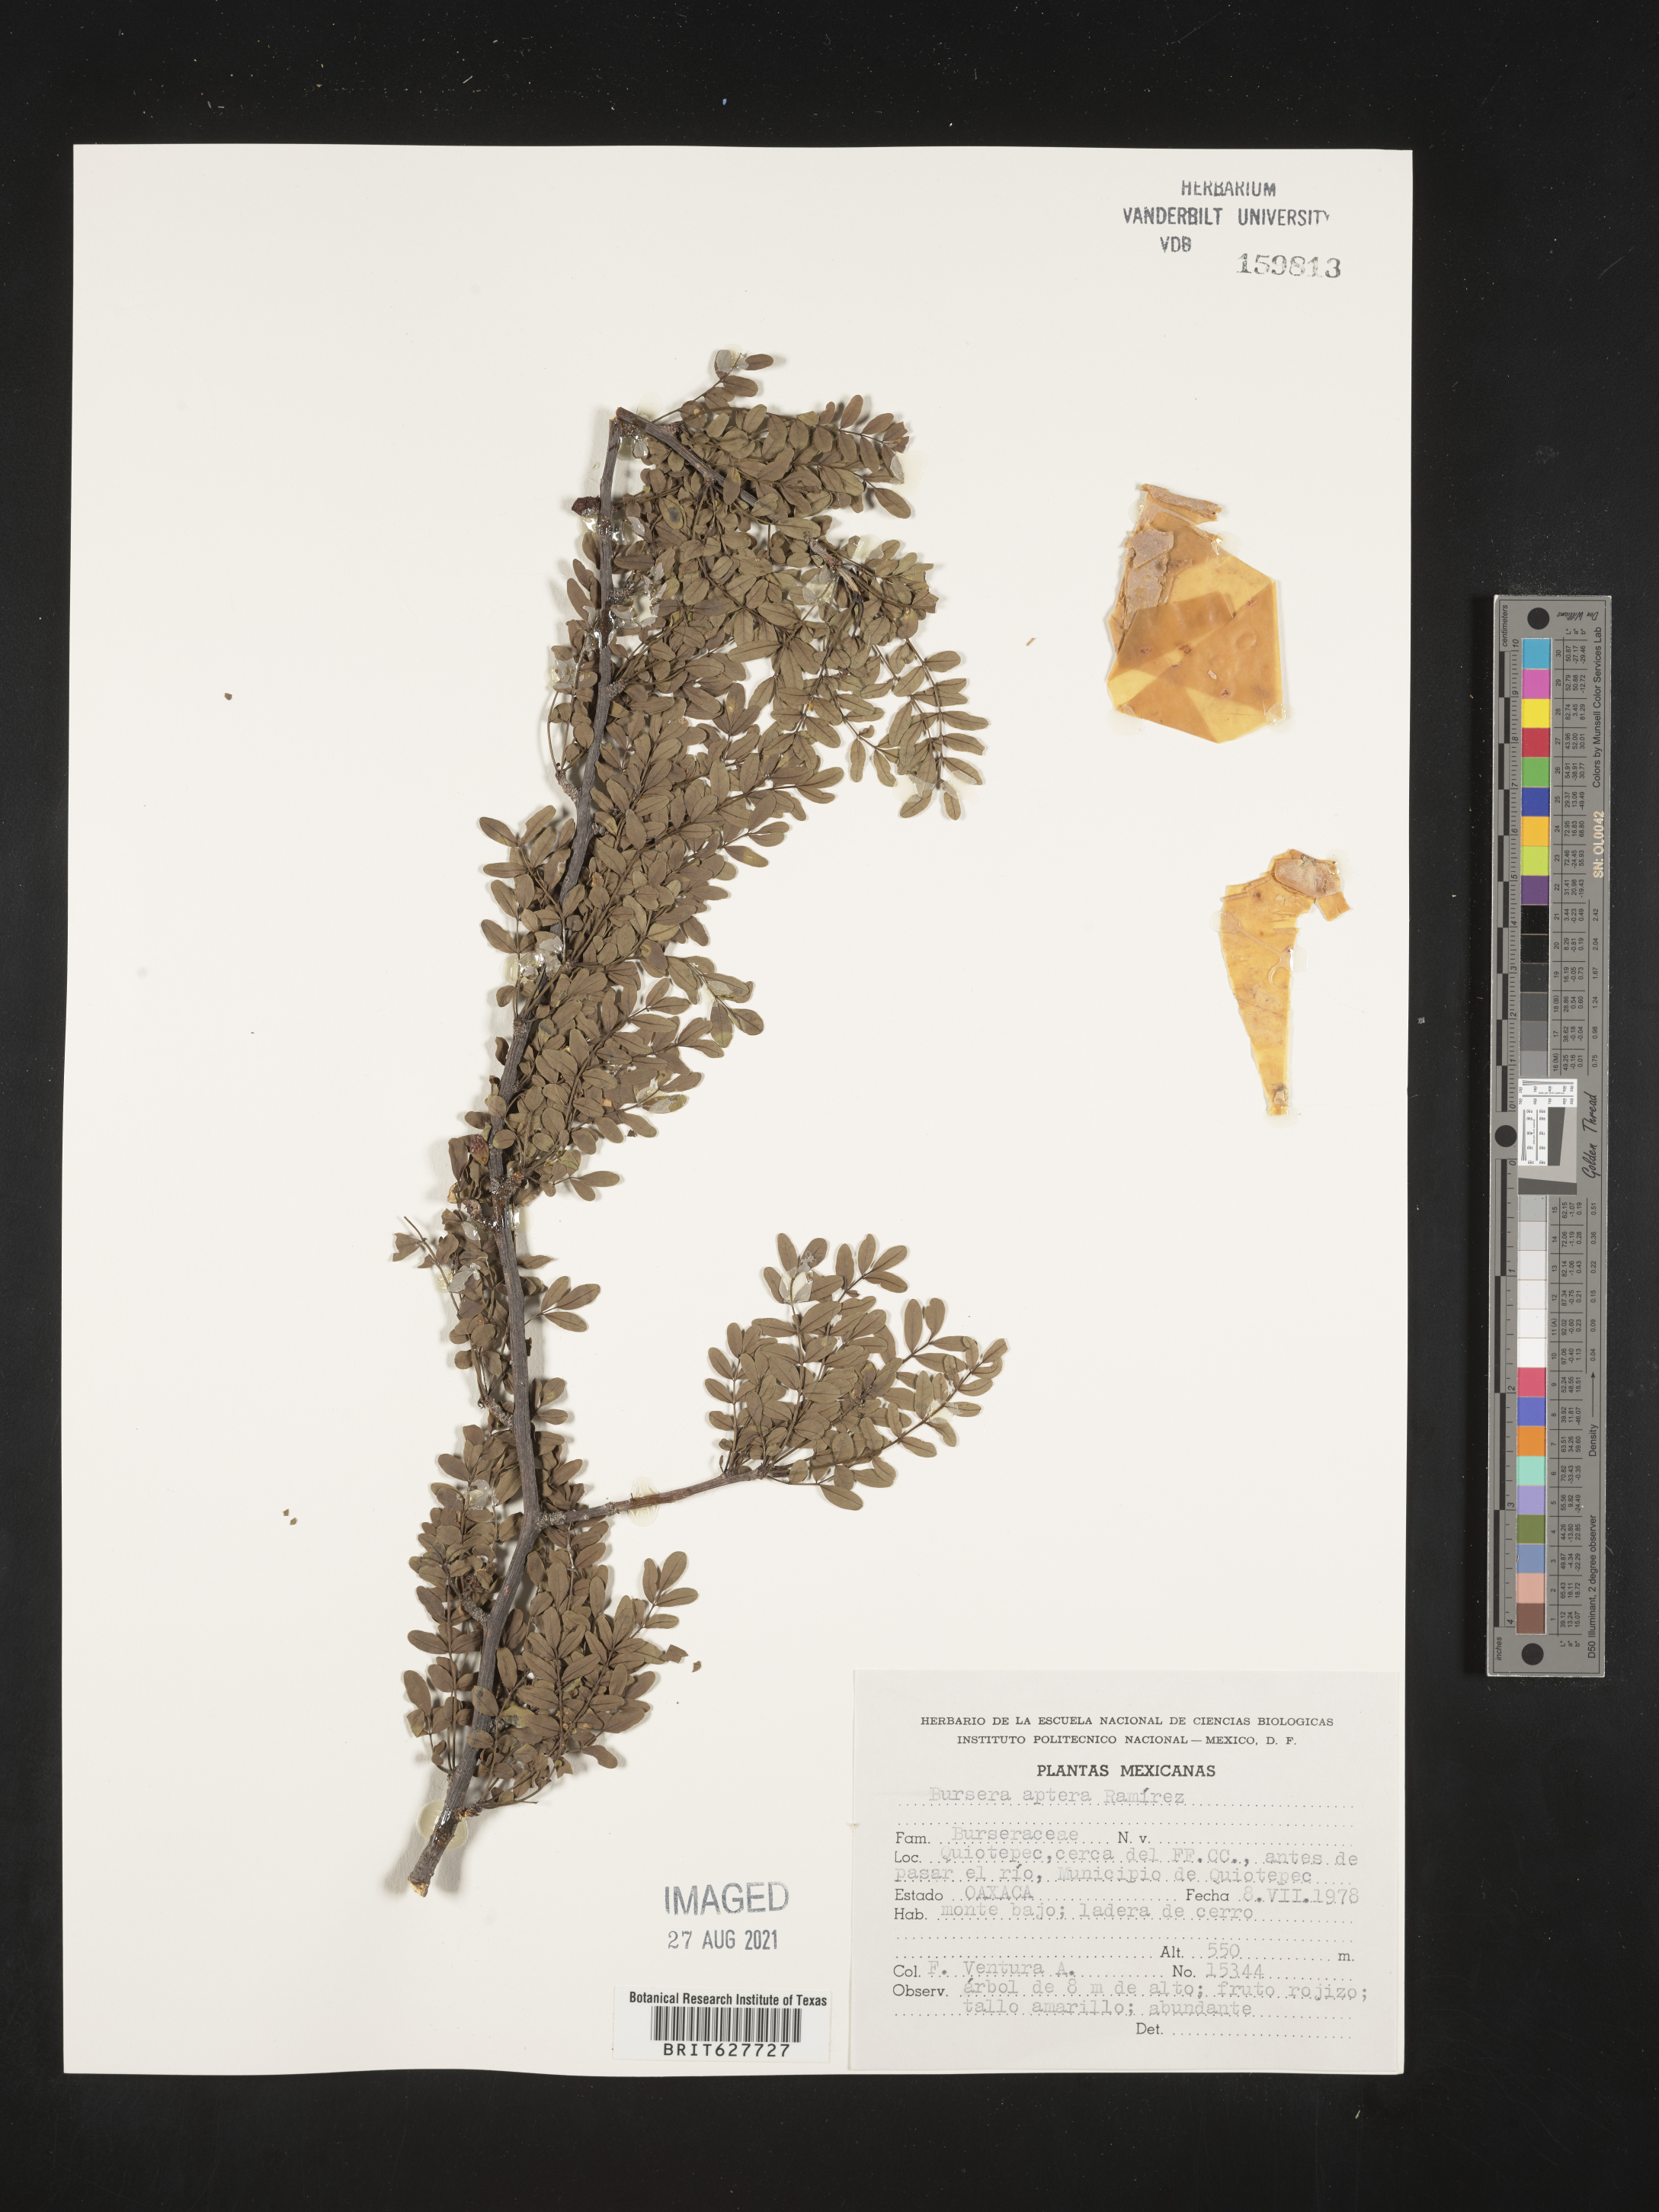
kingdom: Plantae
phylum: Tracheophyta
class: Magnoliopsida
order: Sapindales
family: Burseraceae
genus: Bursera
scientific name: Bursera
